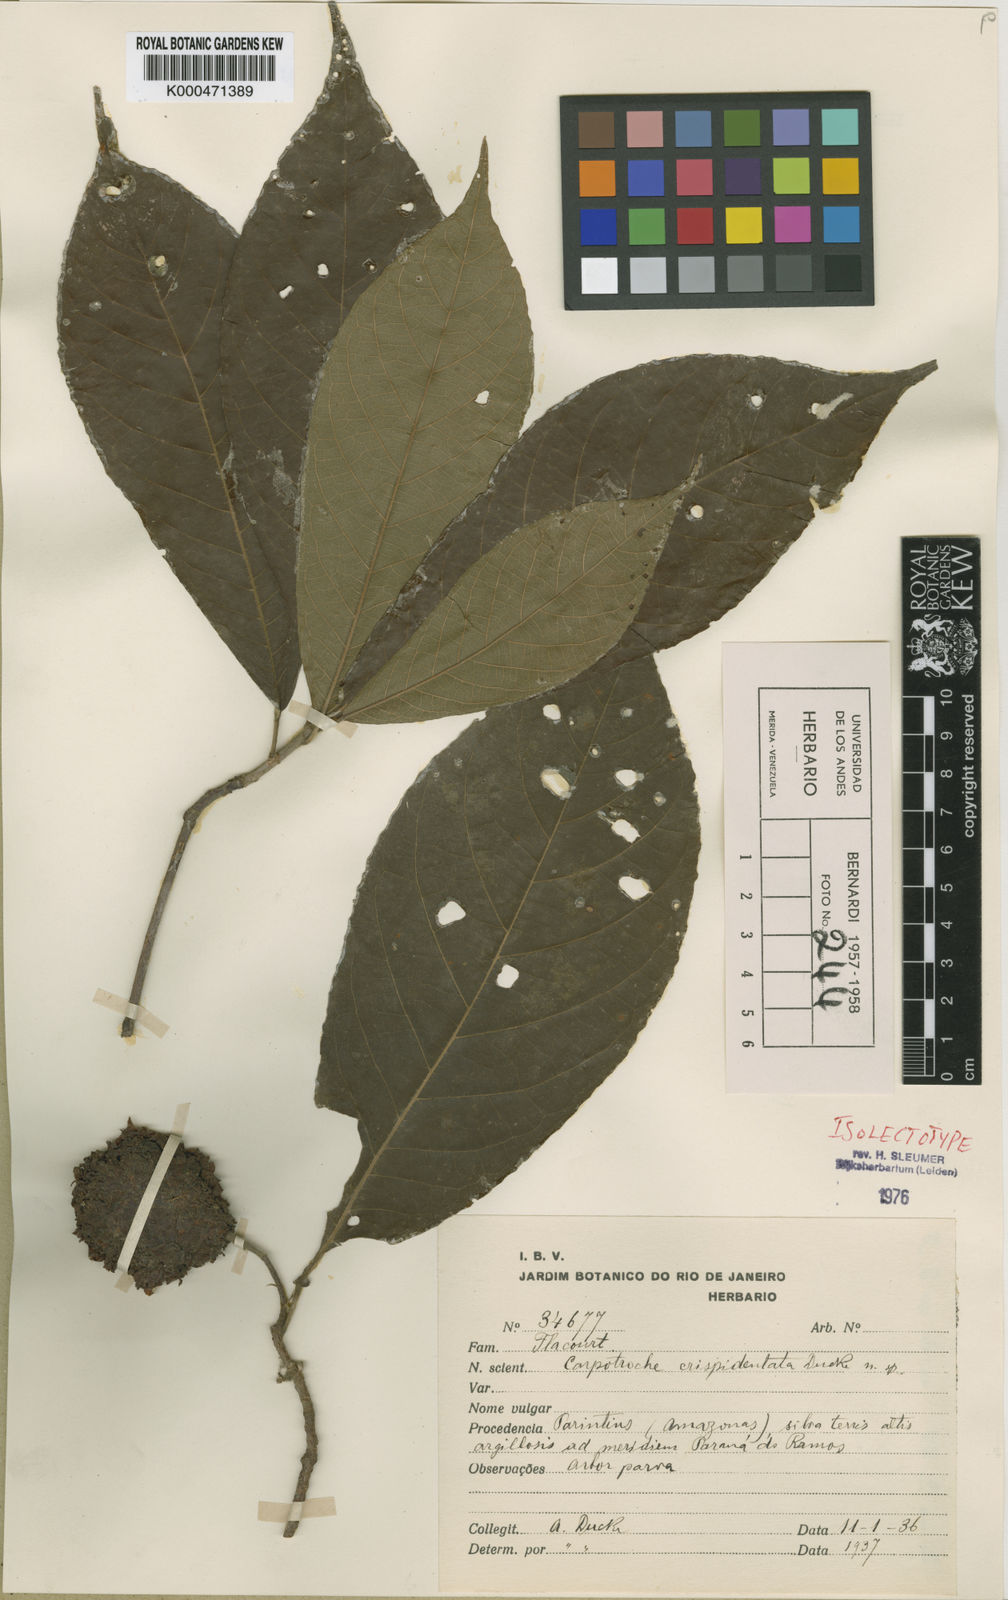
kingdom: Plantae
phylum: Tracheophyta
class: Magnoliopsida
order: Malpighiales
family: Achariaceae
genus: Carpotroche
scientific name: Carpotroche crispidentata
